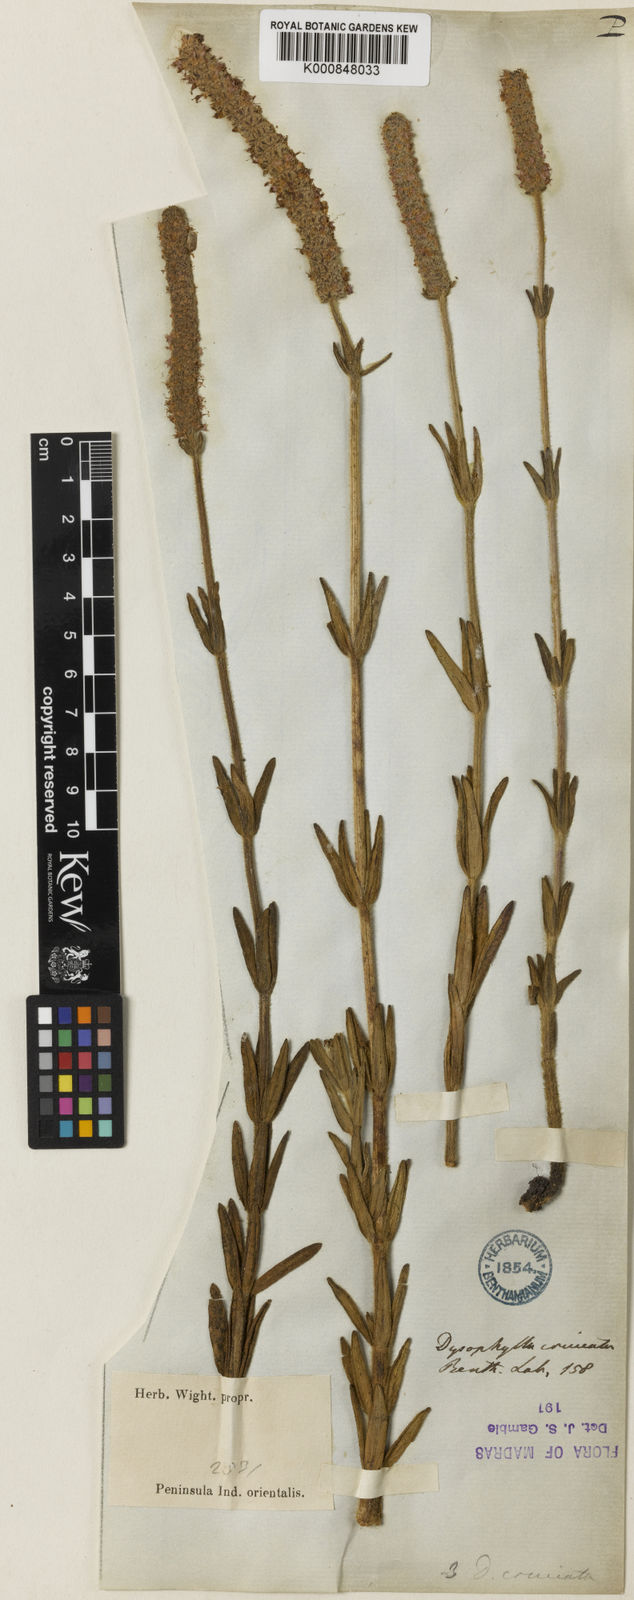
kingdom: Plantae
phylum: Tracheophyta
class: Magnoliopsida
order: Lamiales
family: Lamiaceae
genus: Pogostemon
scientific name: Pogostemon cruciatus
